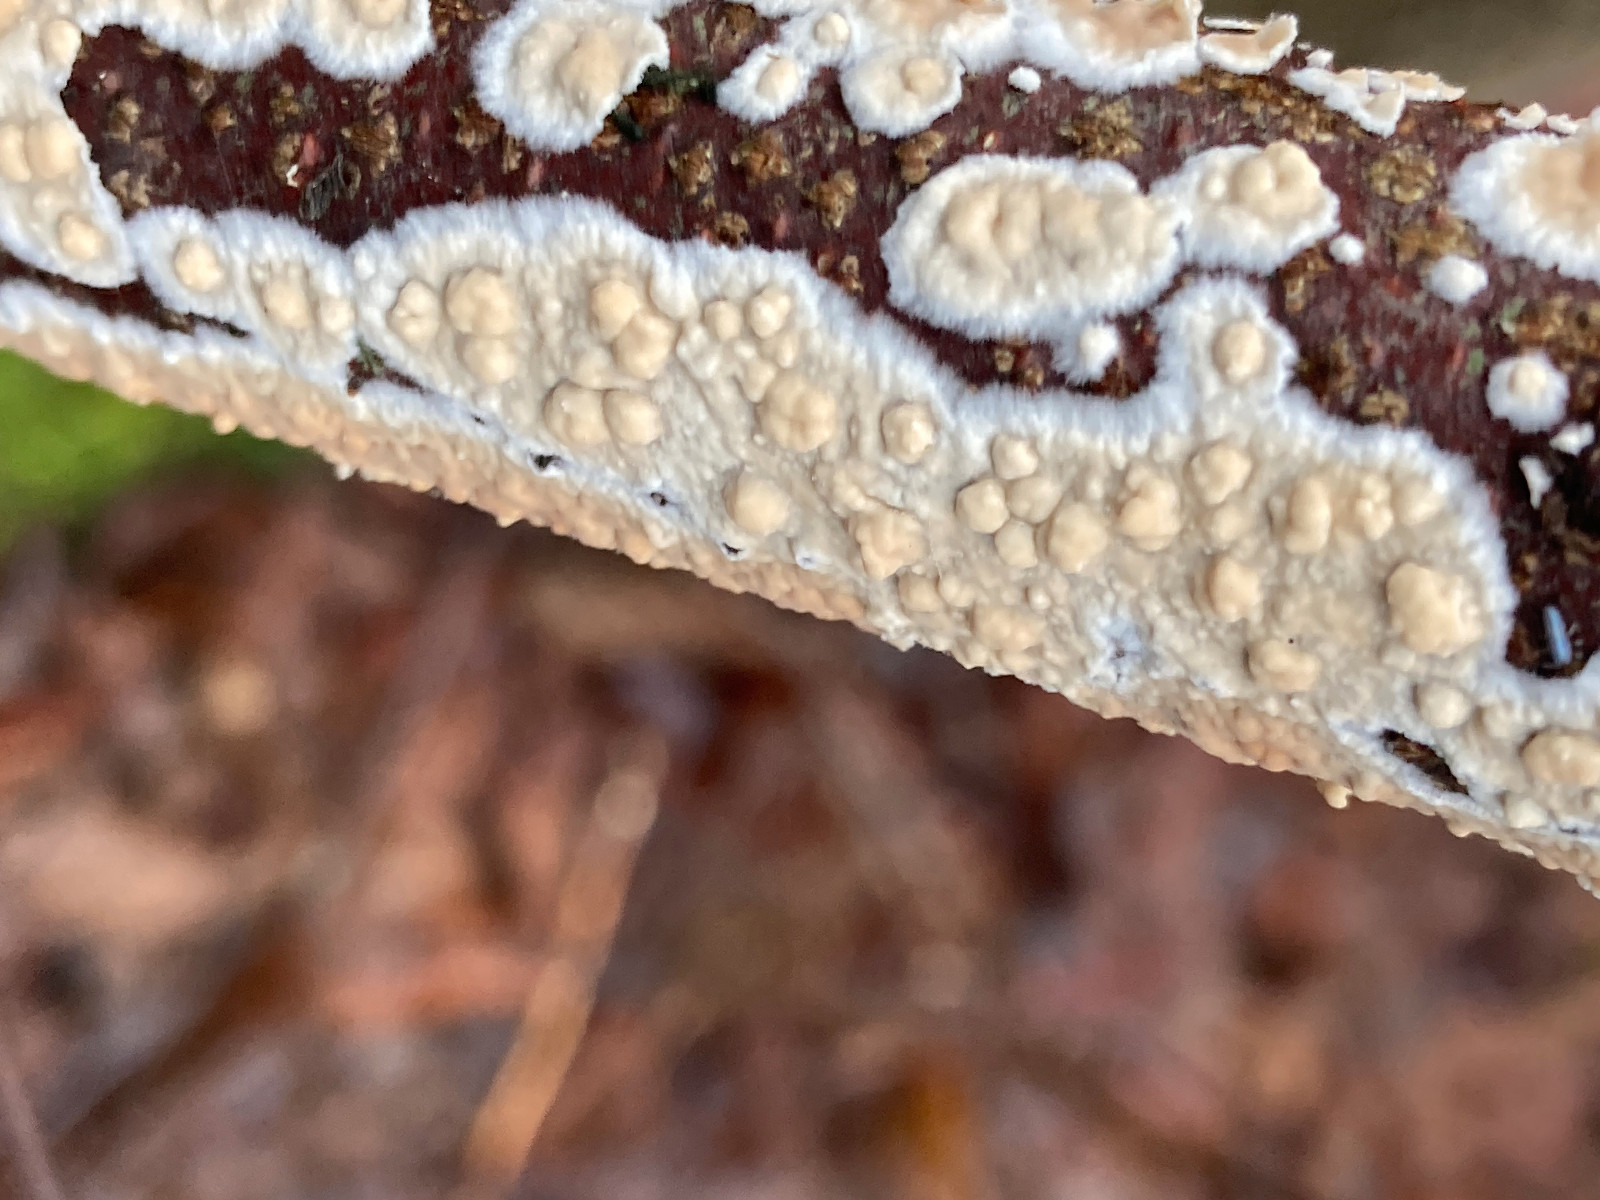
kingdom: Fungi
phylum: Basidiomycota
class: Agaricomycetes
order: Agaricales
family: Physalacriaceae
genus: Cylindrobasidium
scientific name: Cylindrobasidium evolvens
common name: sprækkehinde
